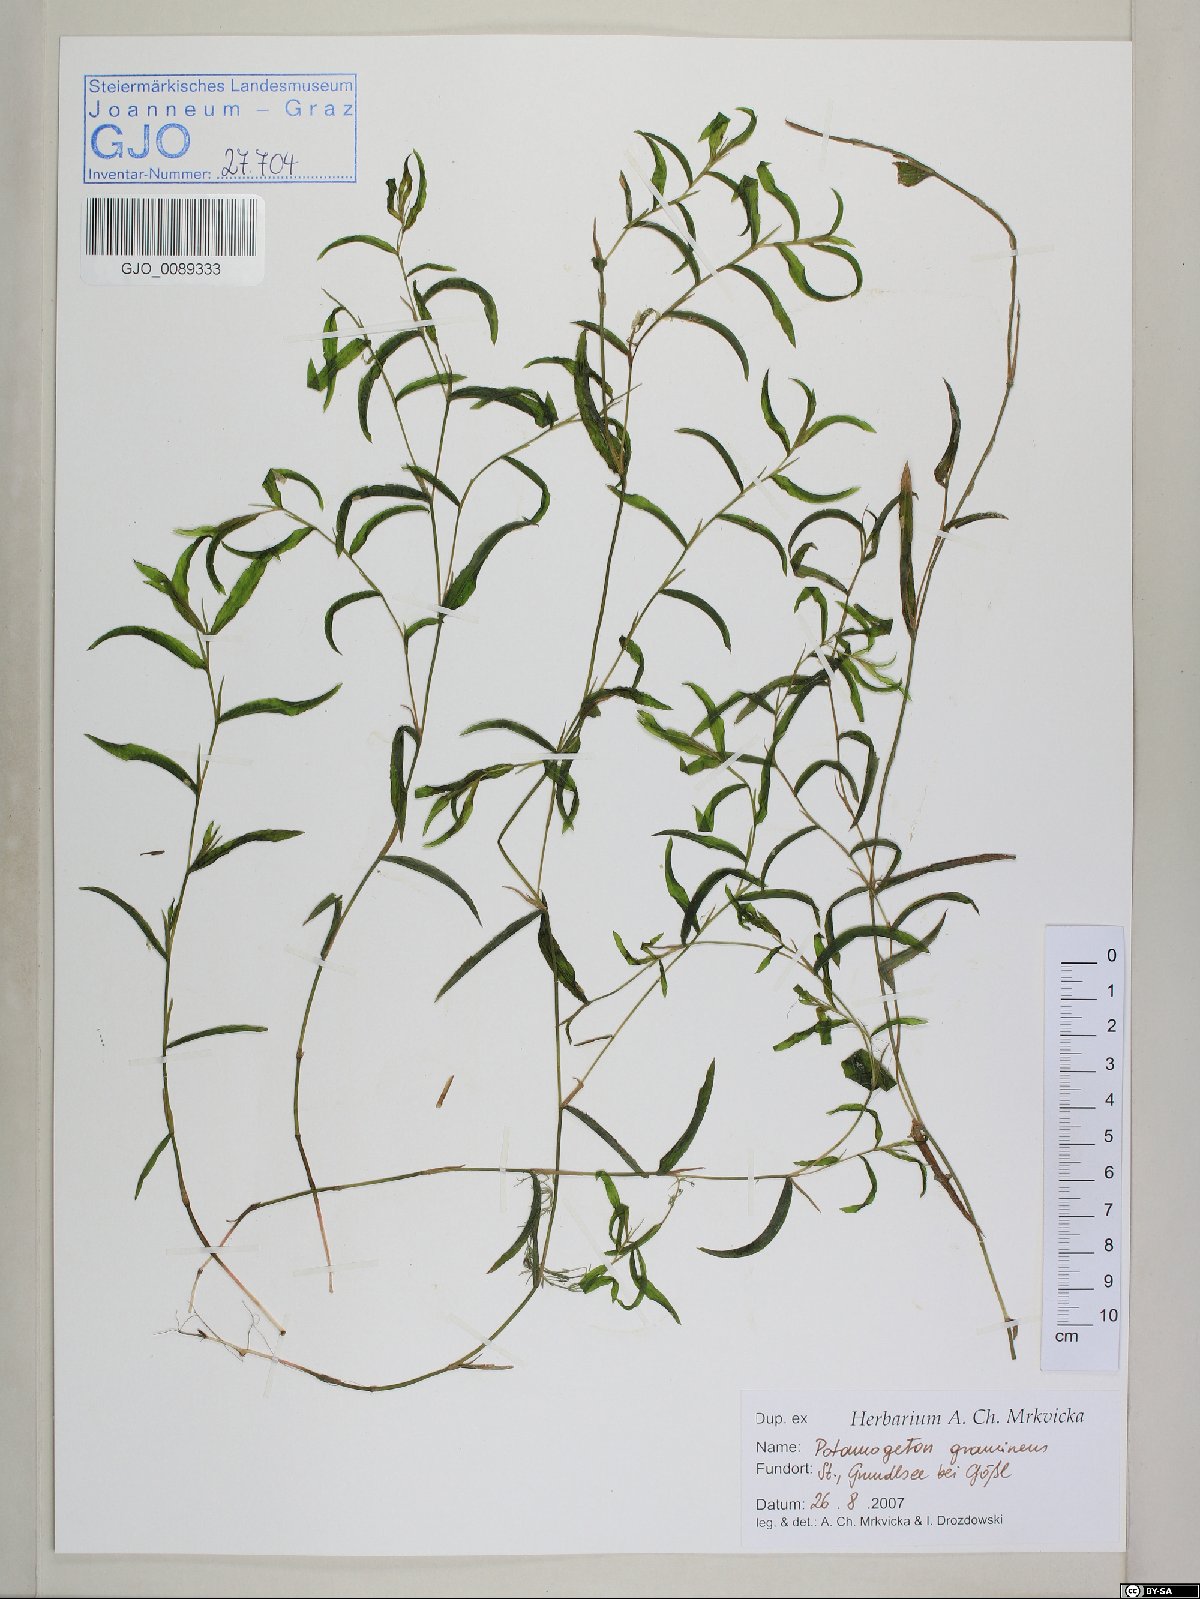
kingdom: Plantae
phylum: Tracheophyta
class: Liliopsida
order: Alismatales
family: Potamogetonaceae
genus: Potamogeton
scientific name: Potamogeton gramineus
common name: Various-leaved pondweed
